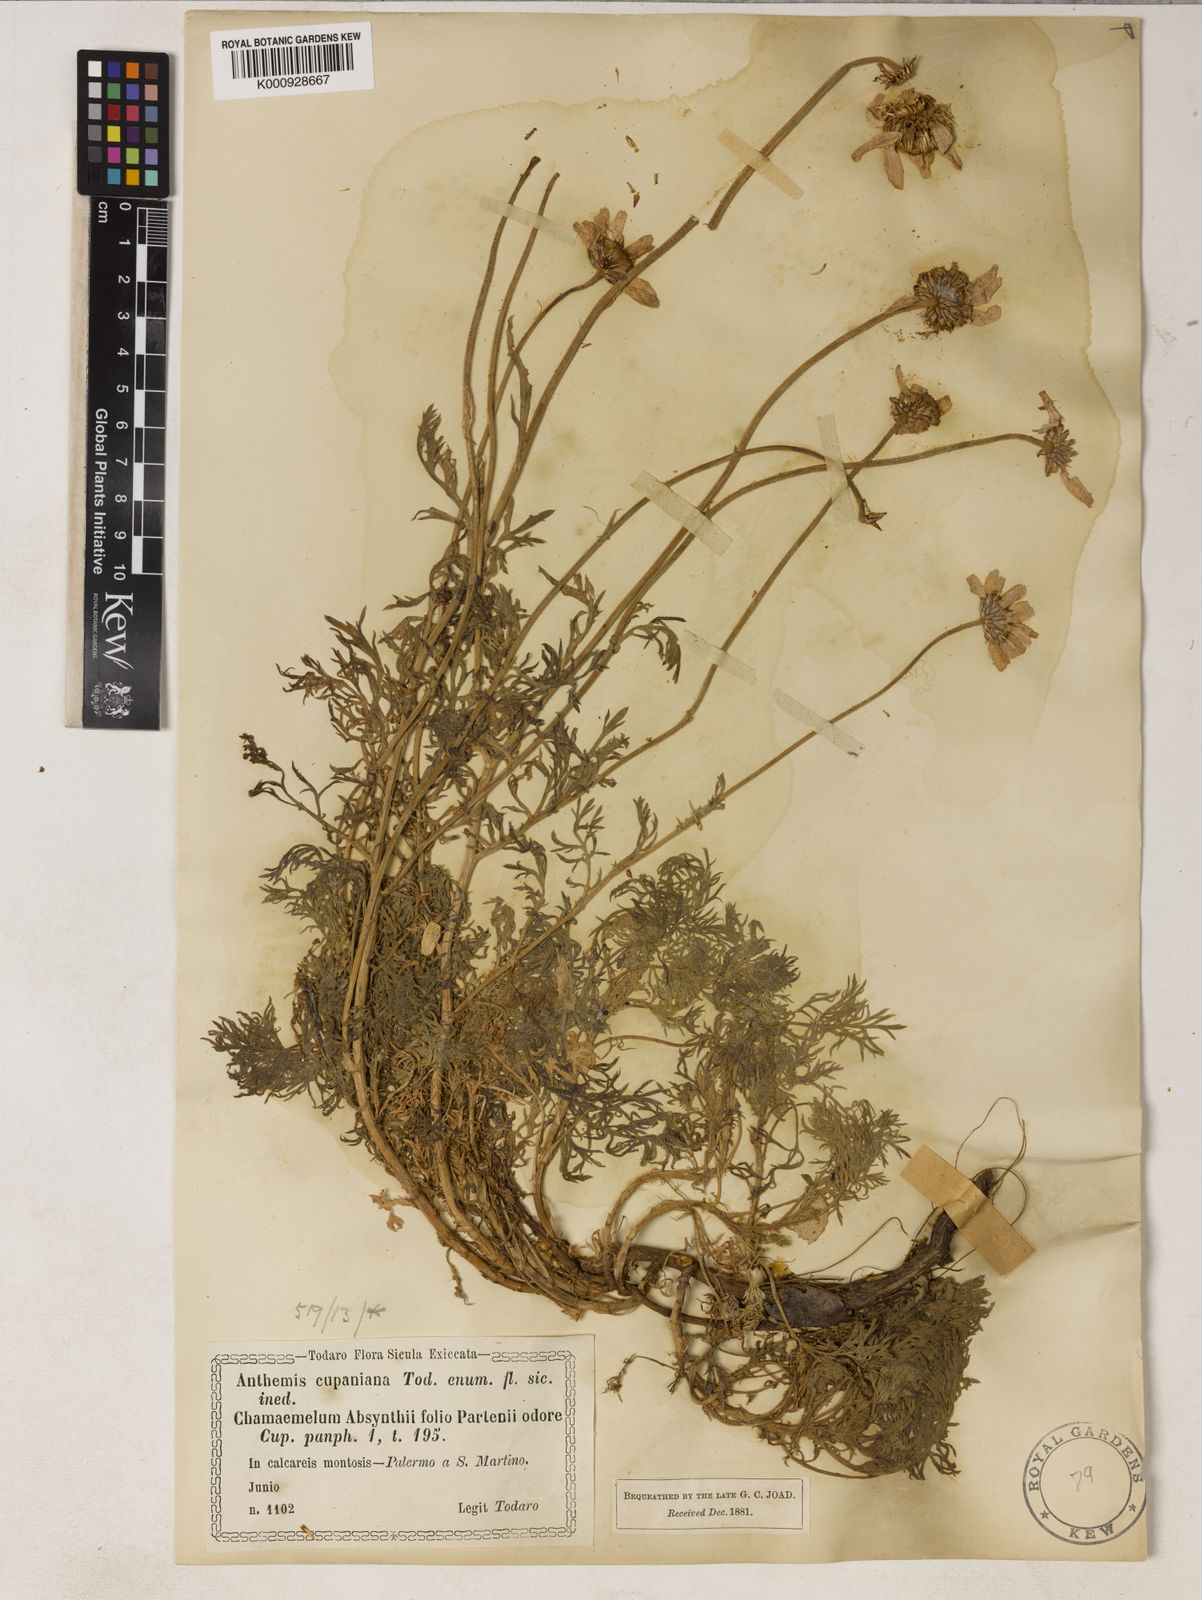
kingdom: Plantae
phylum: Tracheophyta
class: Magnoliopsida
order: Asterales
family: Asteraceae
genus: Anthemis
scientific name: Anthemis cupaniana
